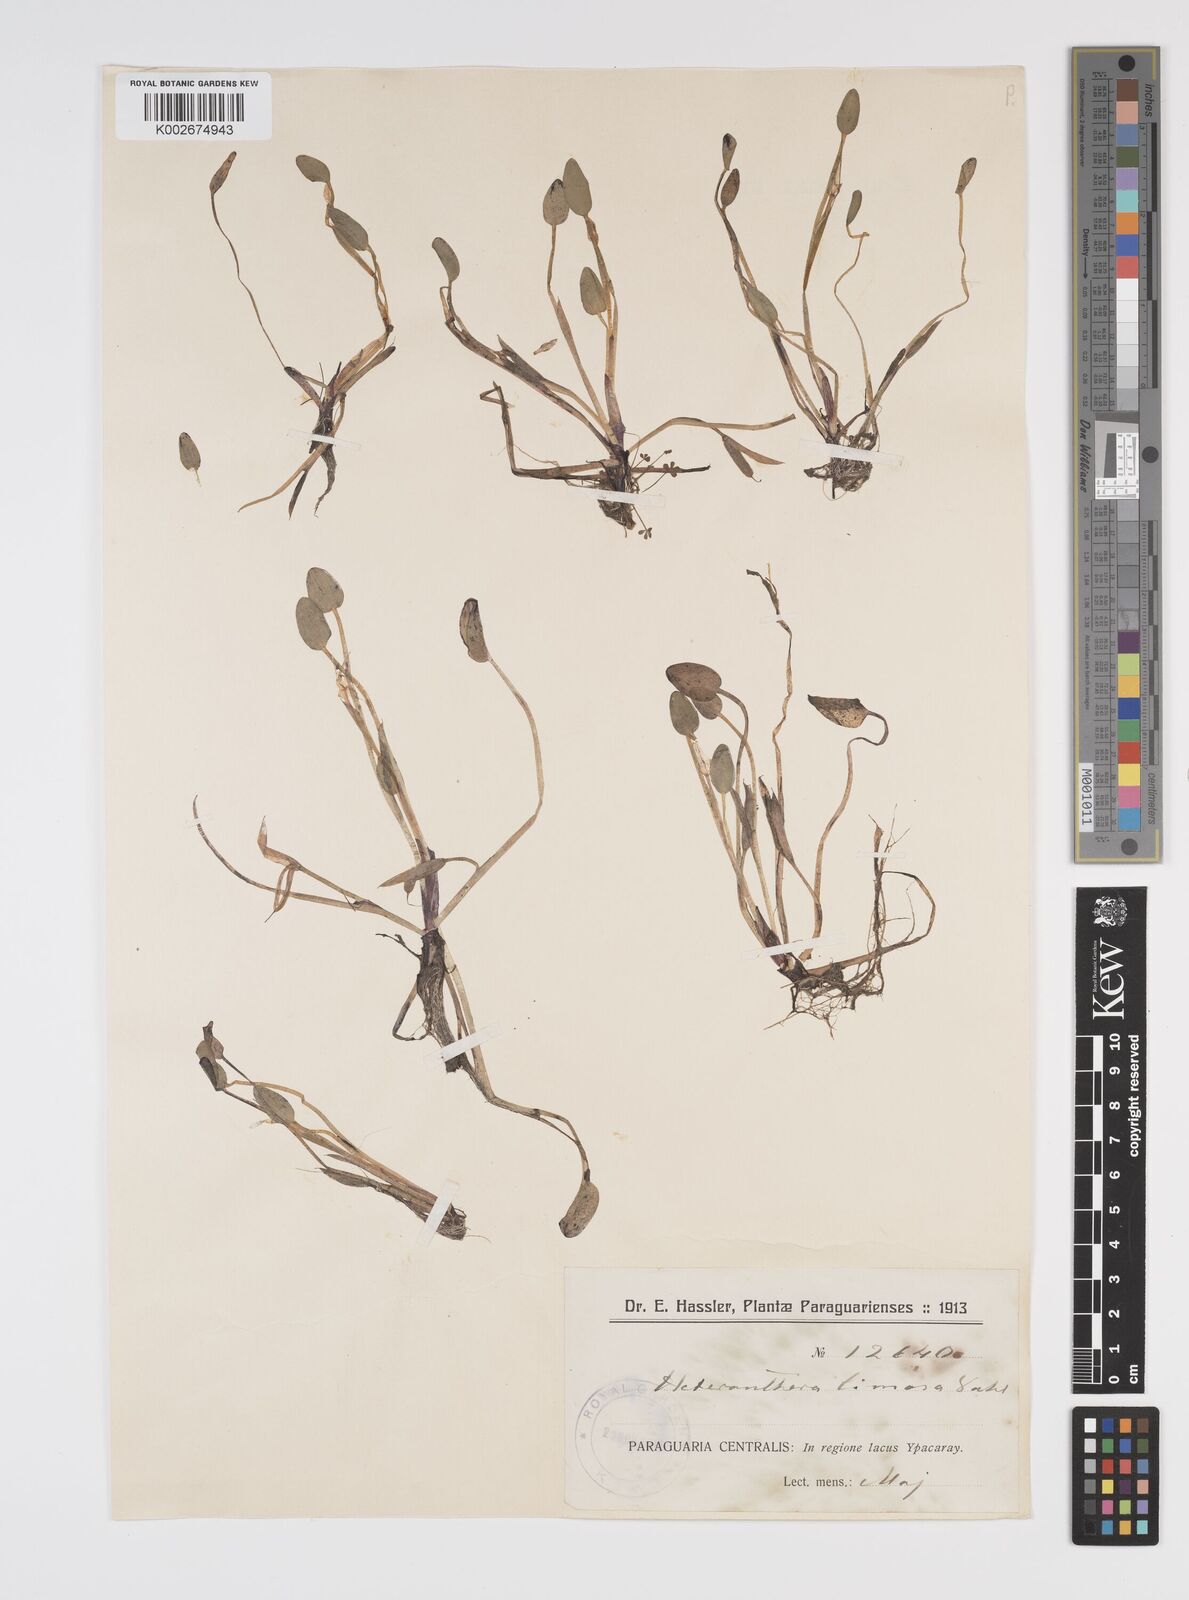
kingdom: Plantae
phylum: Tracheophyta
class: Liliopsida
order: Commelinales
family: Pontederiaceae
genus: Heteranthera
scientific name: Heteranthera limosa
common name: Blue mud-plantain
